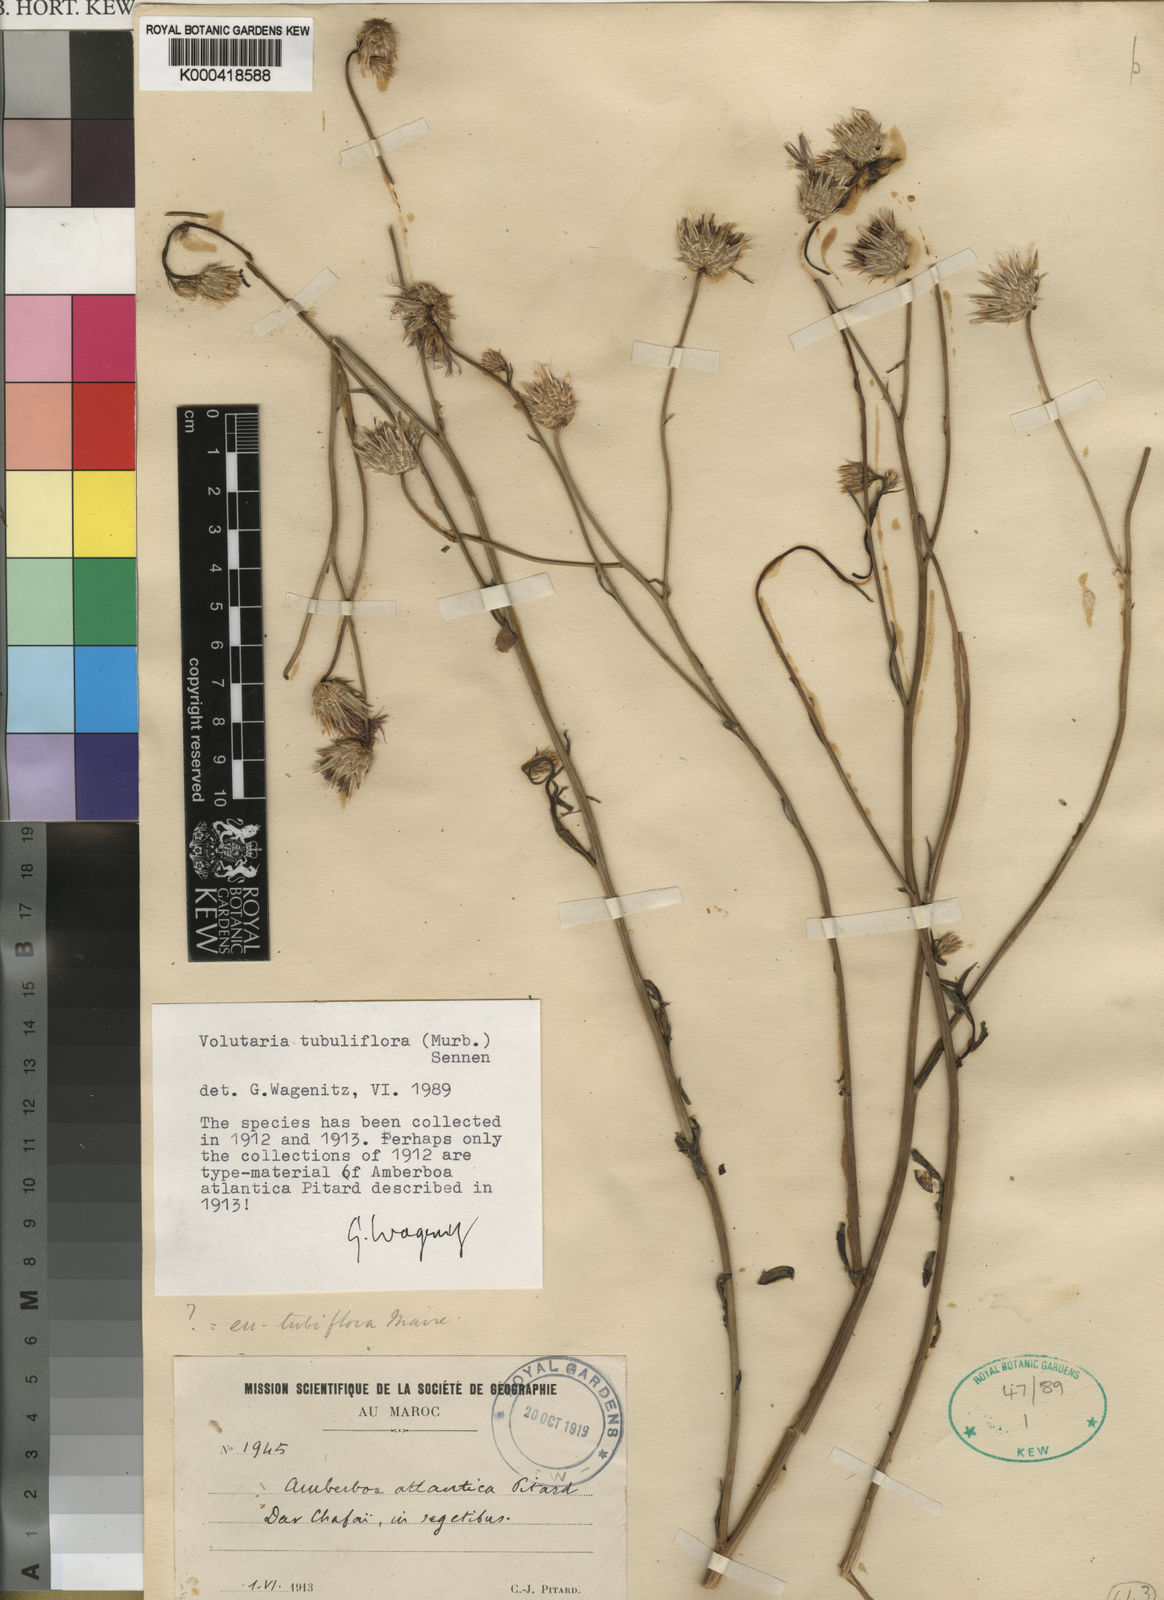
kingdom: Plantae
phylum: Tracheophyta
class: Magnoliopsida
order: Asterales
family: Asteraceae
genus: Volutaria
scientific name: Volutaria tubuliflora
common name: Desert knapweed
